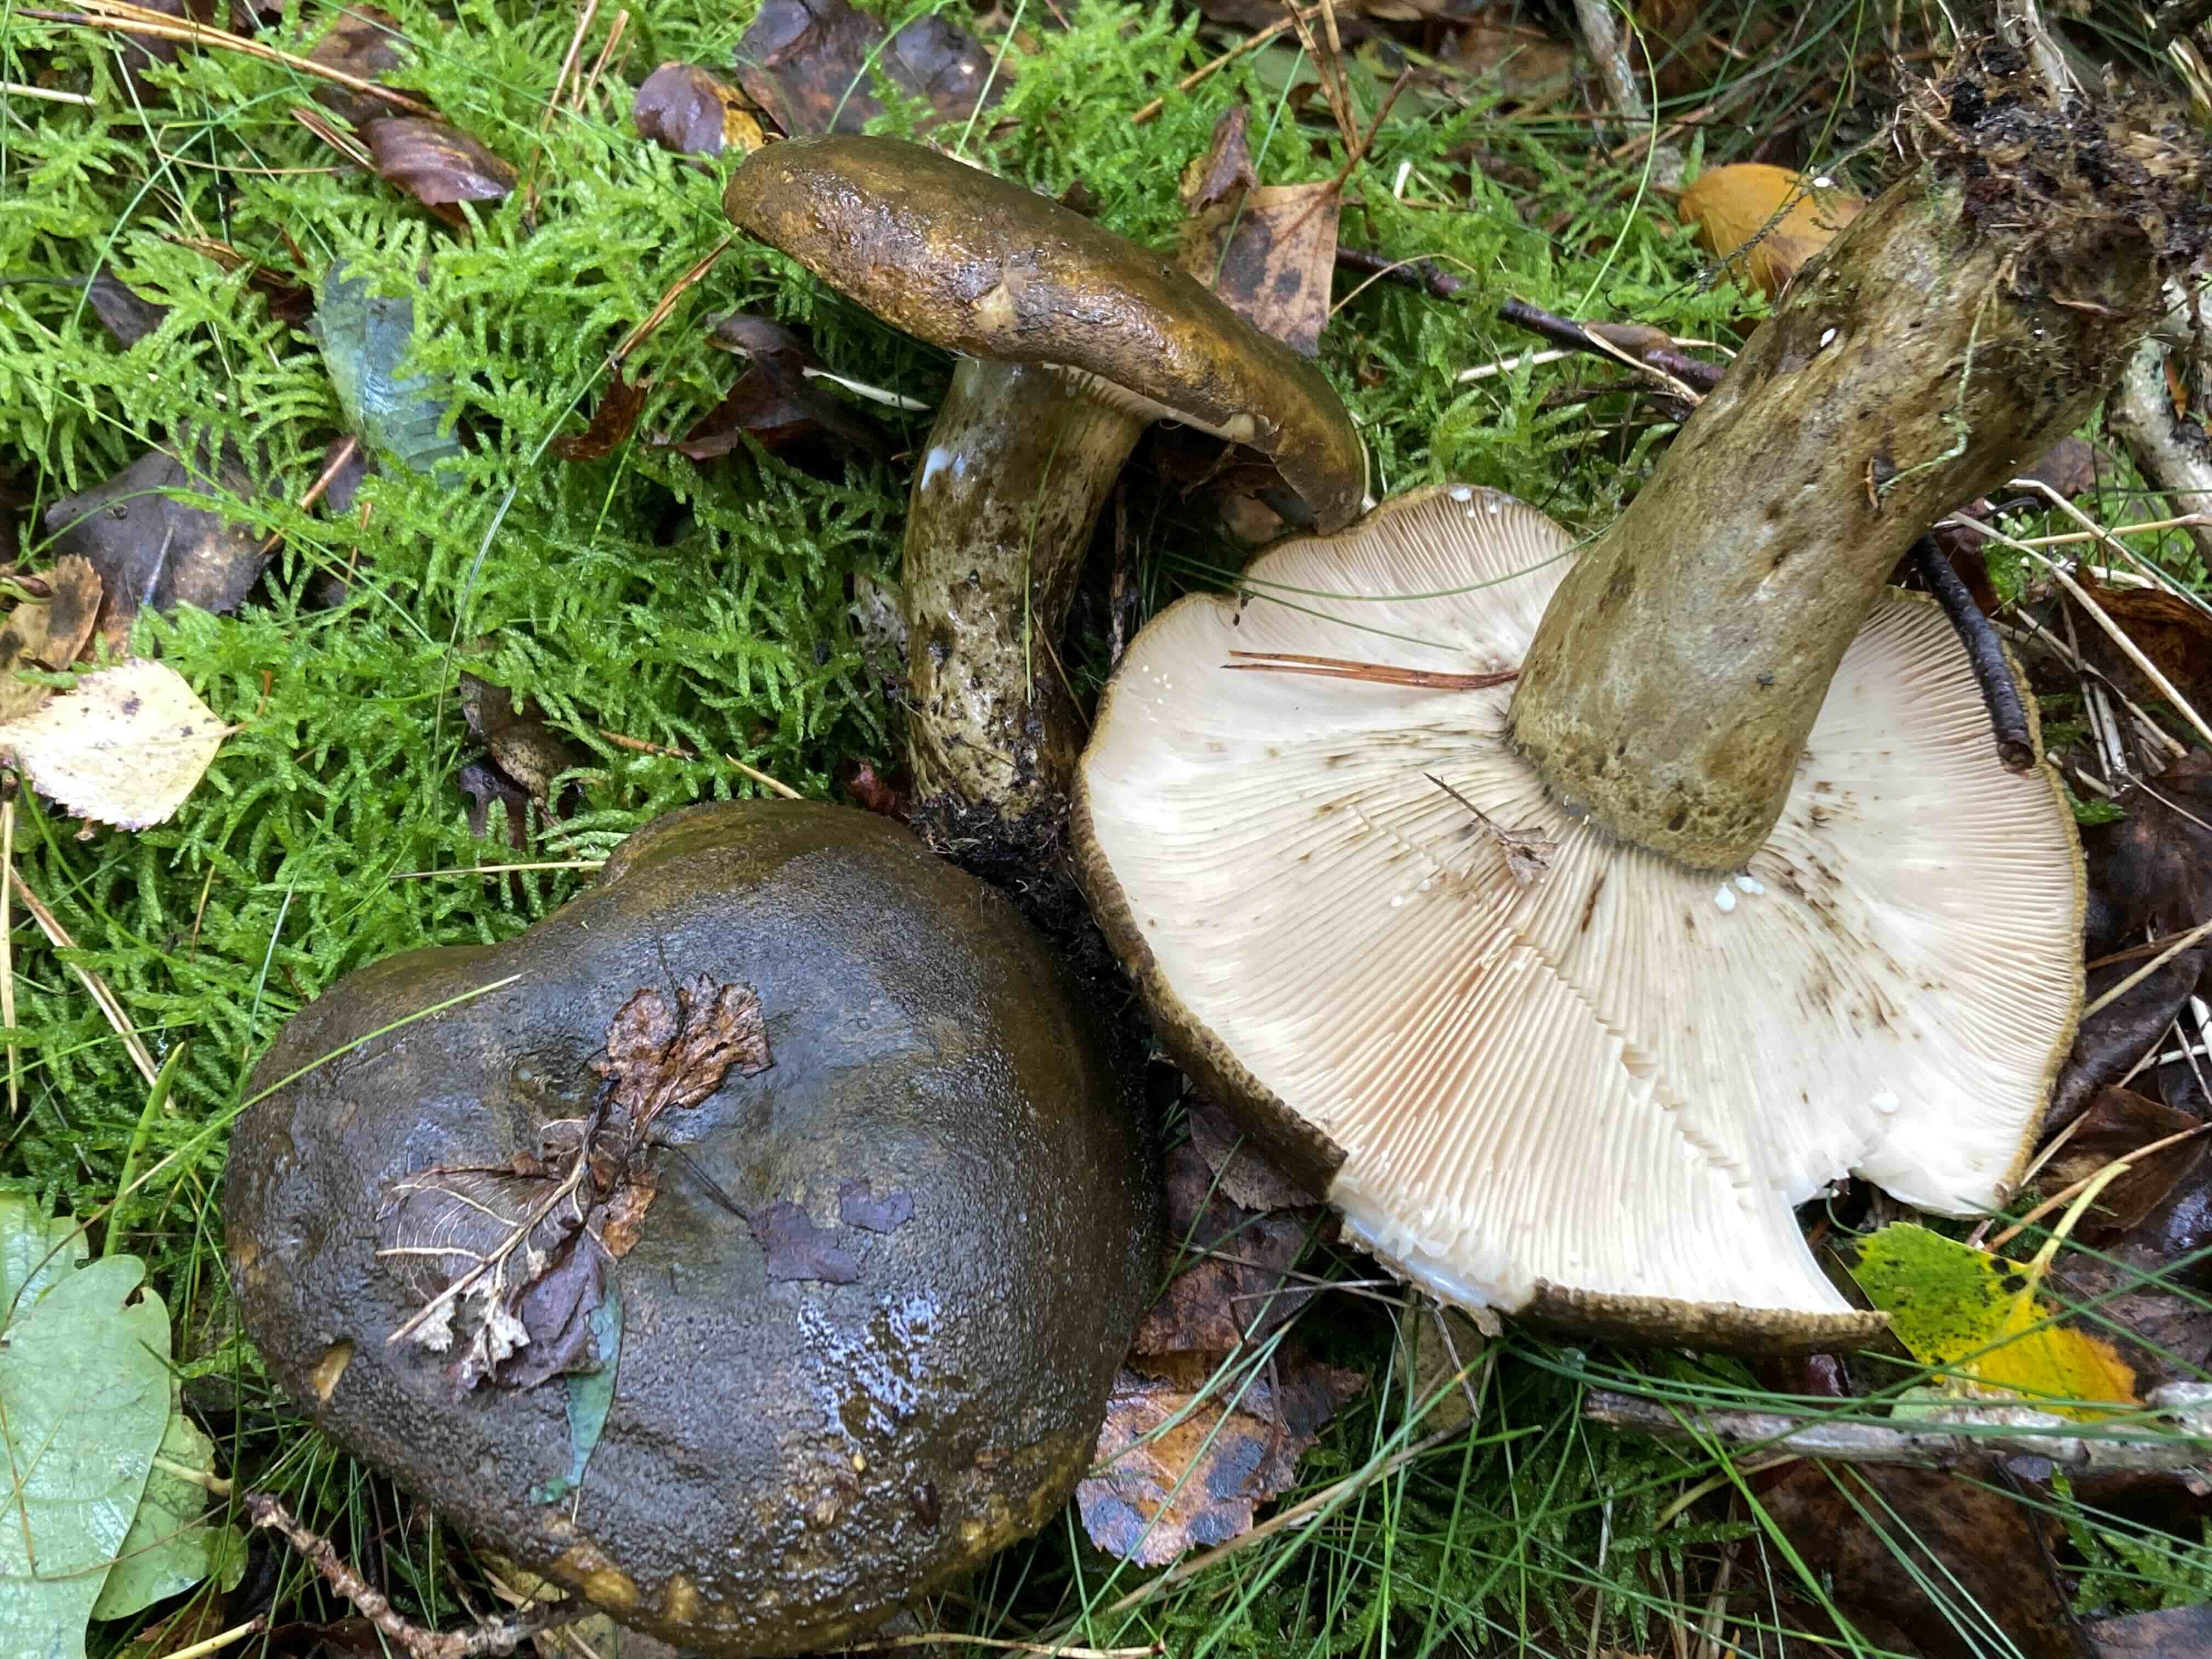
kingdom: Fungi
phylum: Basidiomycota
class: Agaricomycetes
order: Russulales
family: Russulaceae
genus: Lactarius
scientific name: Lactarius necator
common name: manddraber-mælkehat
